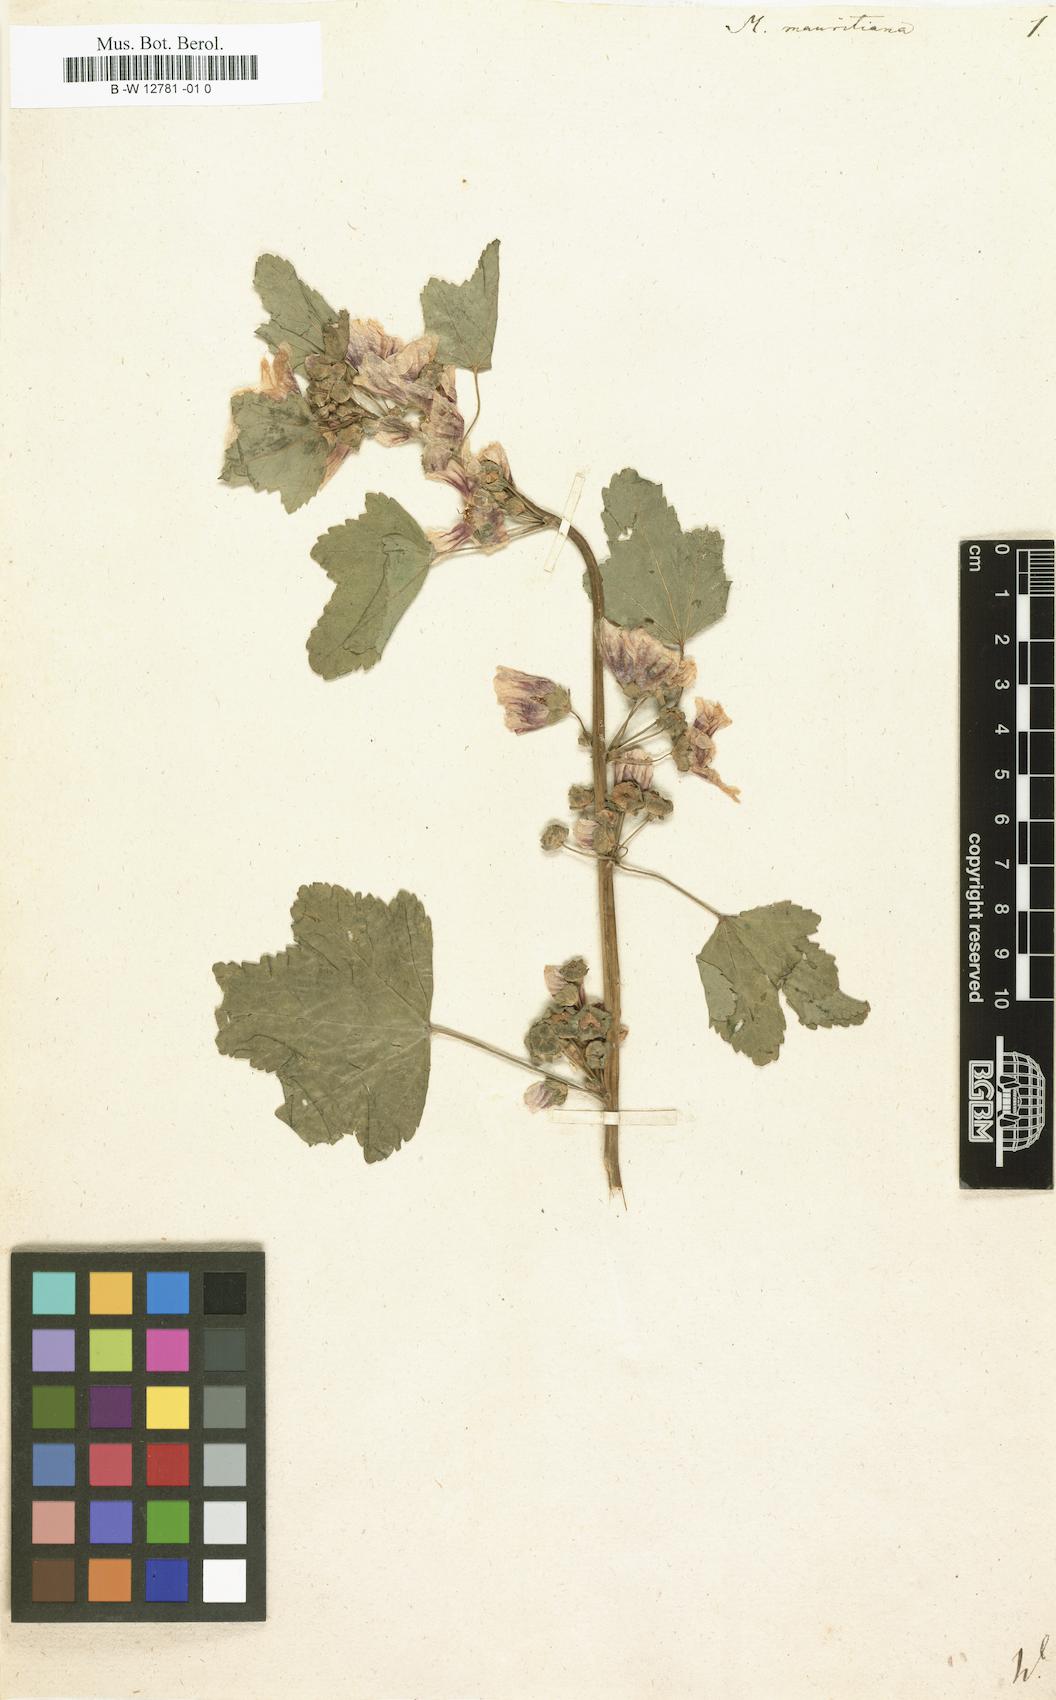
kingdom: Plantae
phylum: Tracheophyta
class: Magnoliopsida
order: Malvales
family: Malvaceae
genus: Malva
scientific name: Malva
